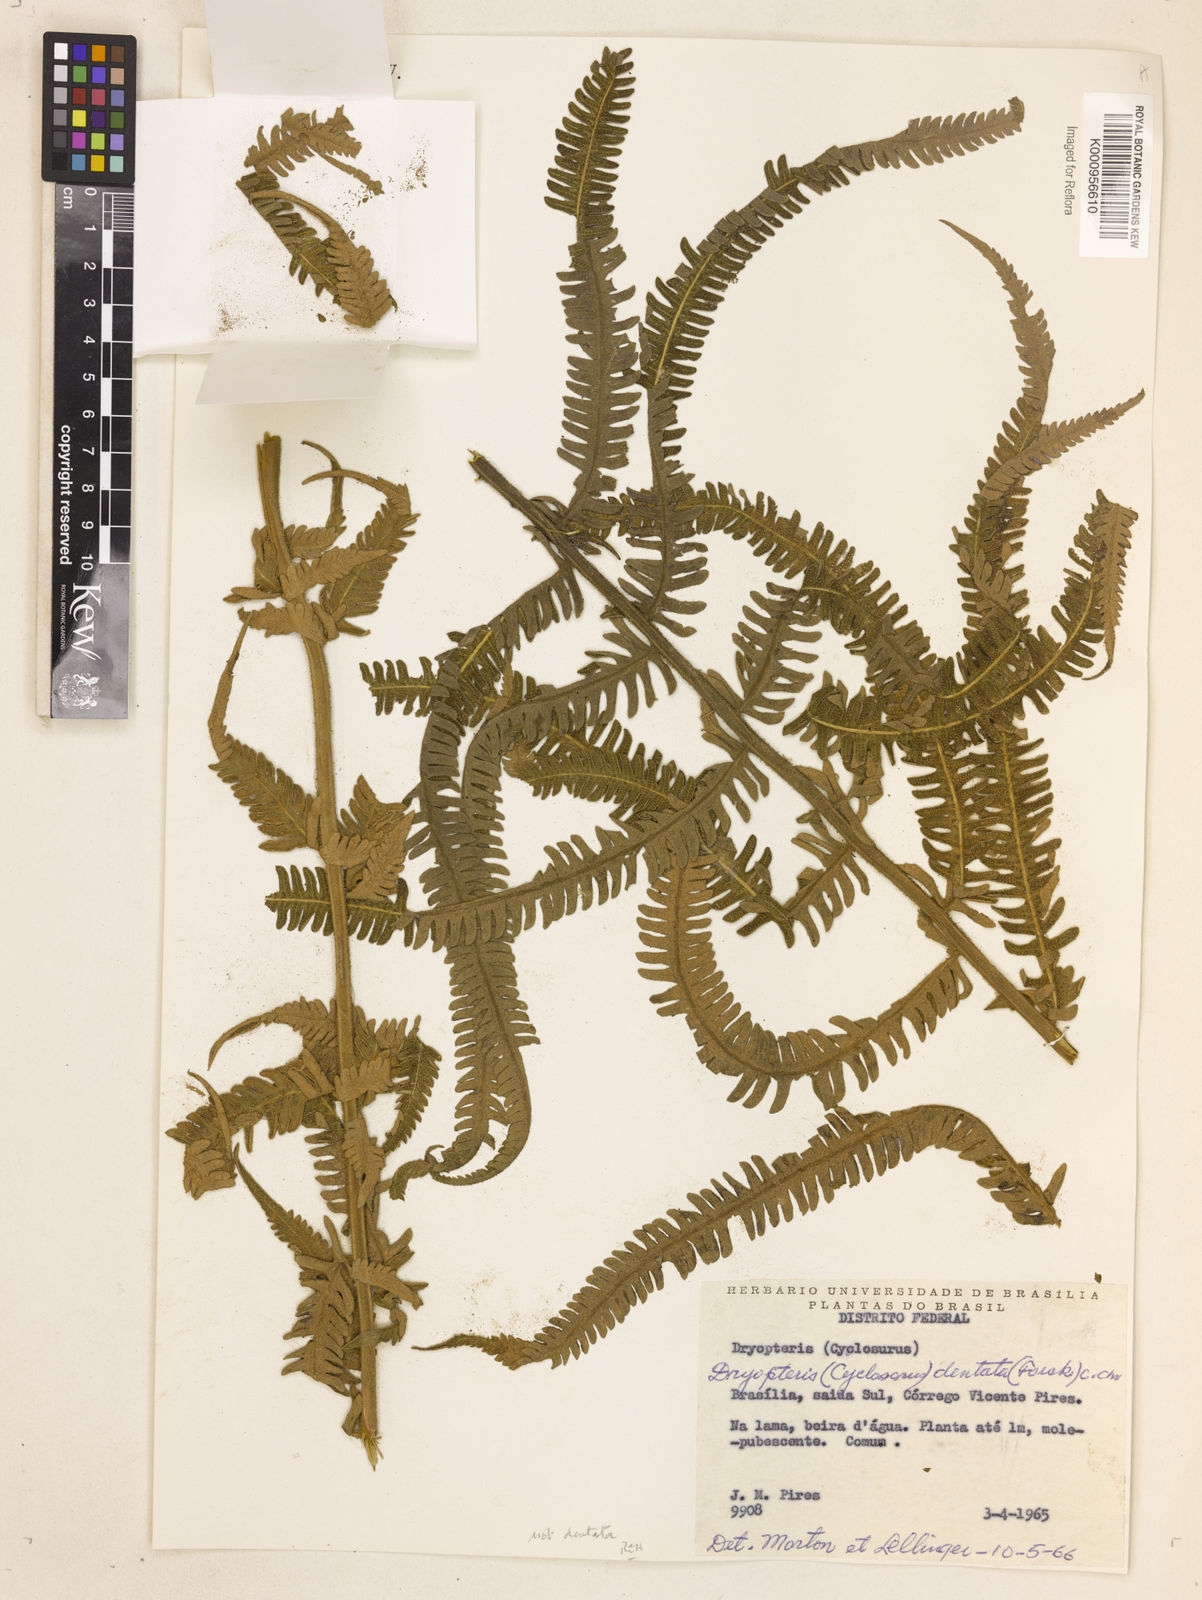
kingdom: Plantae
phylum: Tracheophyta
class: Polypodiopsida
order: Polypodiales
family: Thelypteridaceae
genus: Christella
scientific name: Christella
